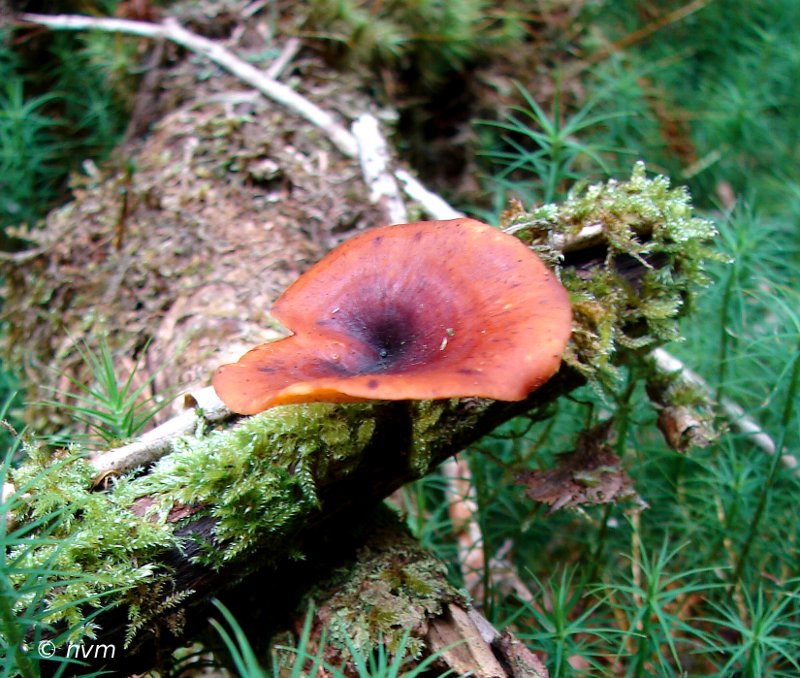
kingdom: Fungi
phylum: Basidiomycota
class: Agaricomycetes
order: Polyporales
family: Polyporaceae
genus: Picipes
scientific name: Picipes tubaeformis
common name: trompet-stilkporesvamp
